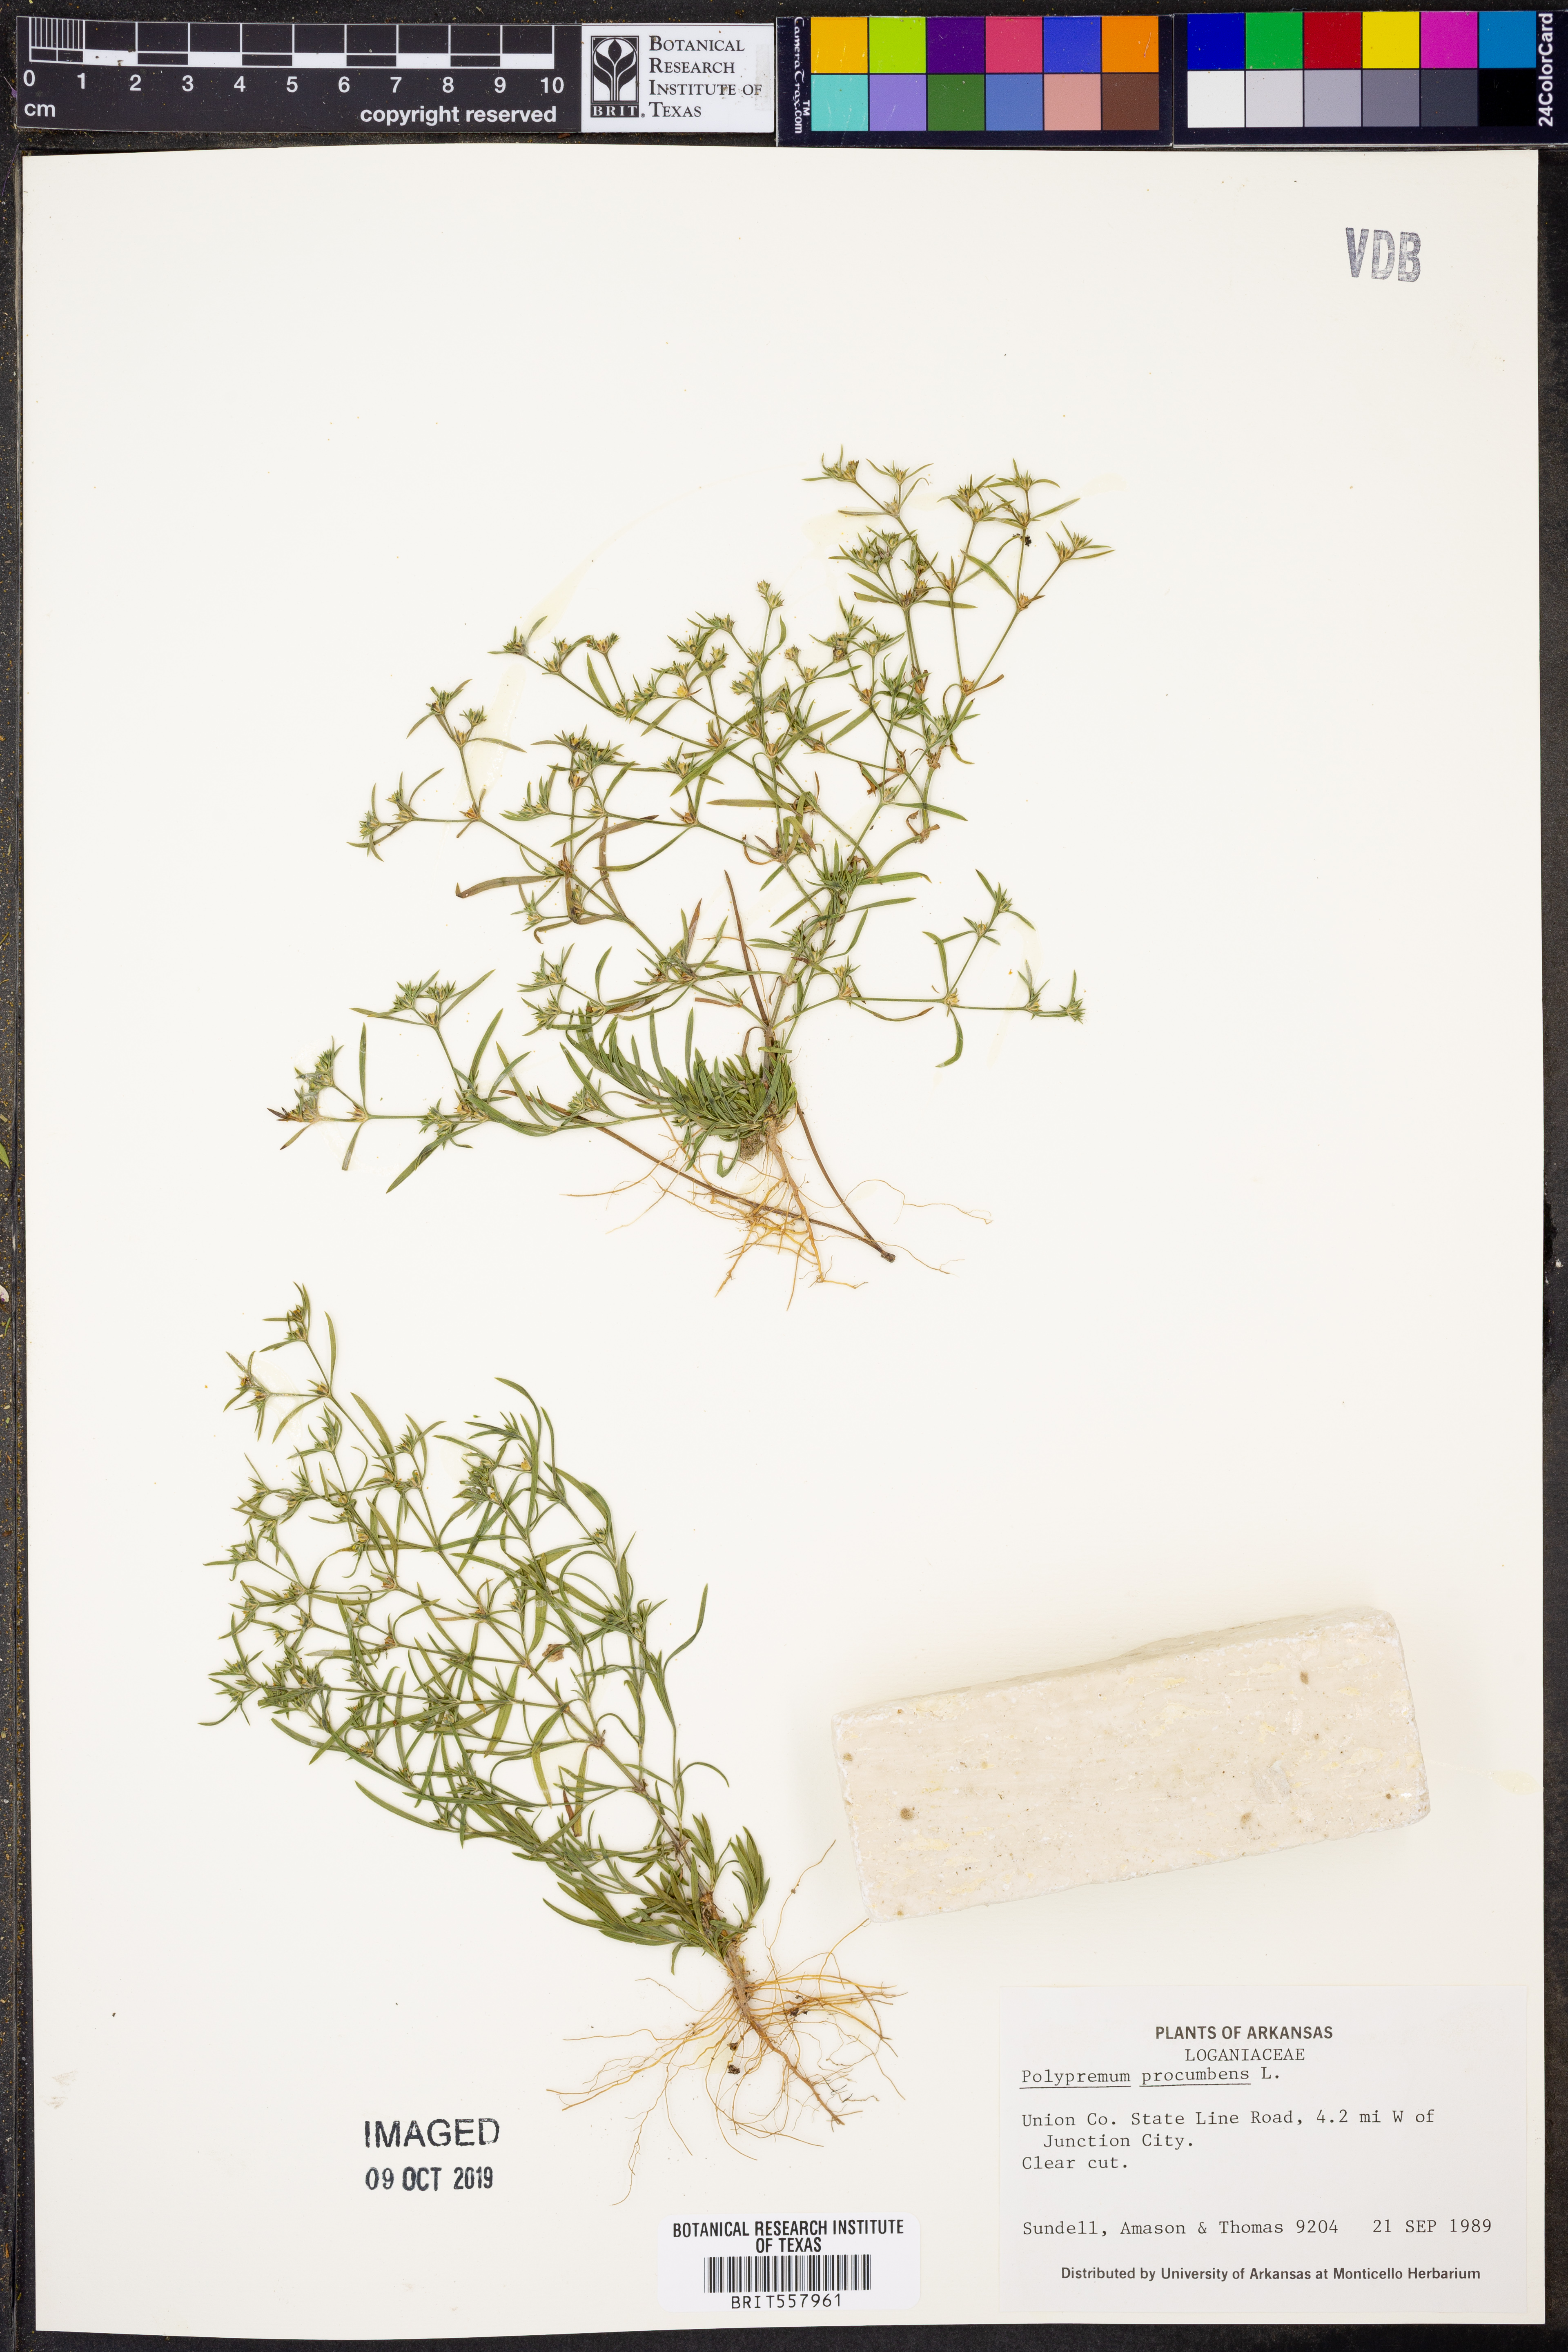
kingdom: Plantae
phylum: Tracheophyta
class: Magnoliopsida
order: Lamiales
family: Tetrachondraceae
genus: Polypremum
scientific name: Polypremum procumbens
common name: Juniper-leaf
